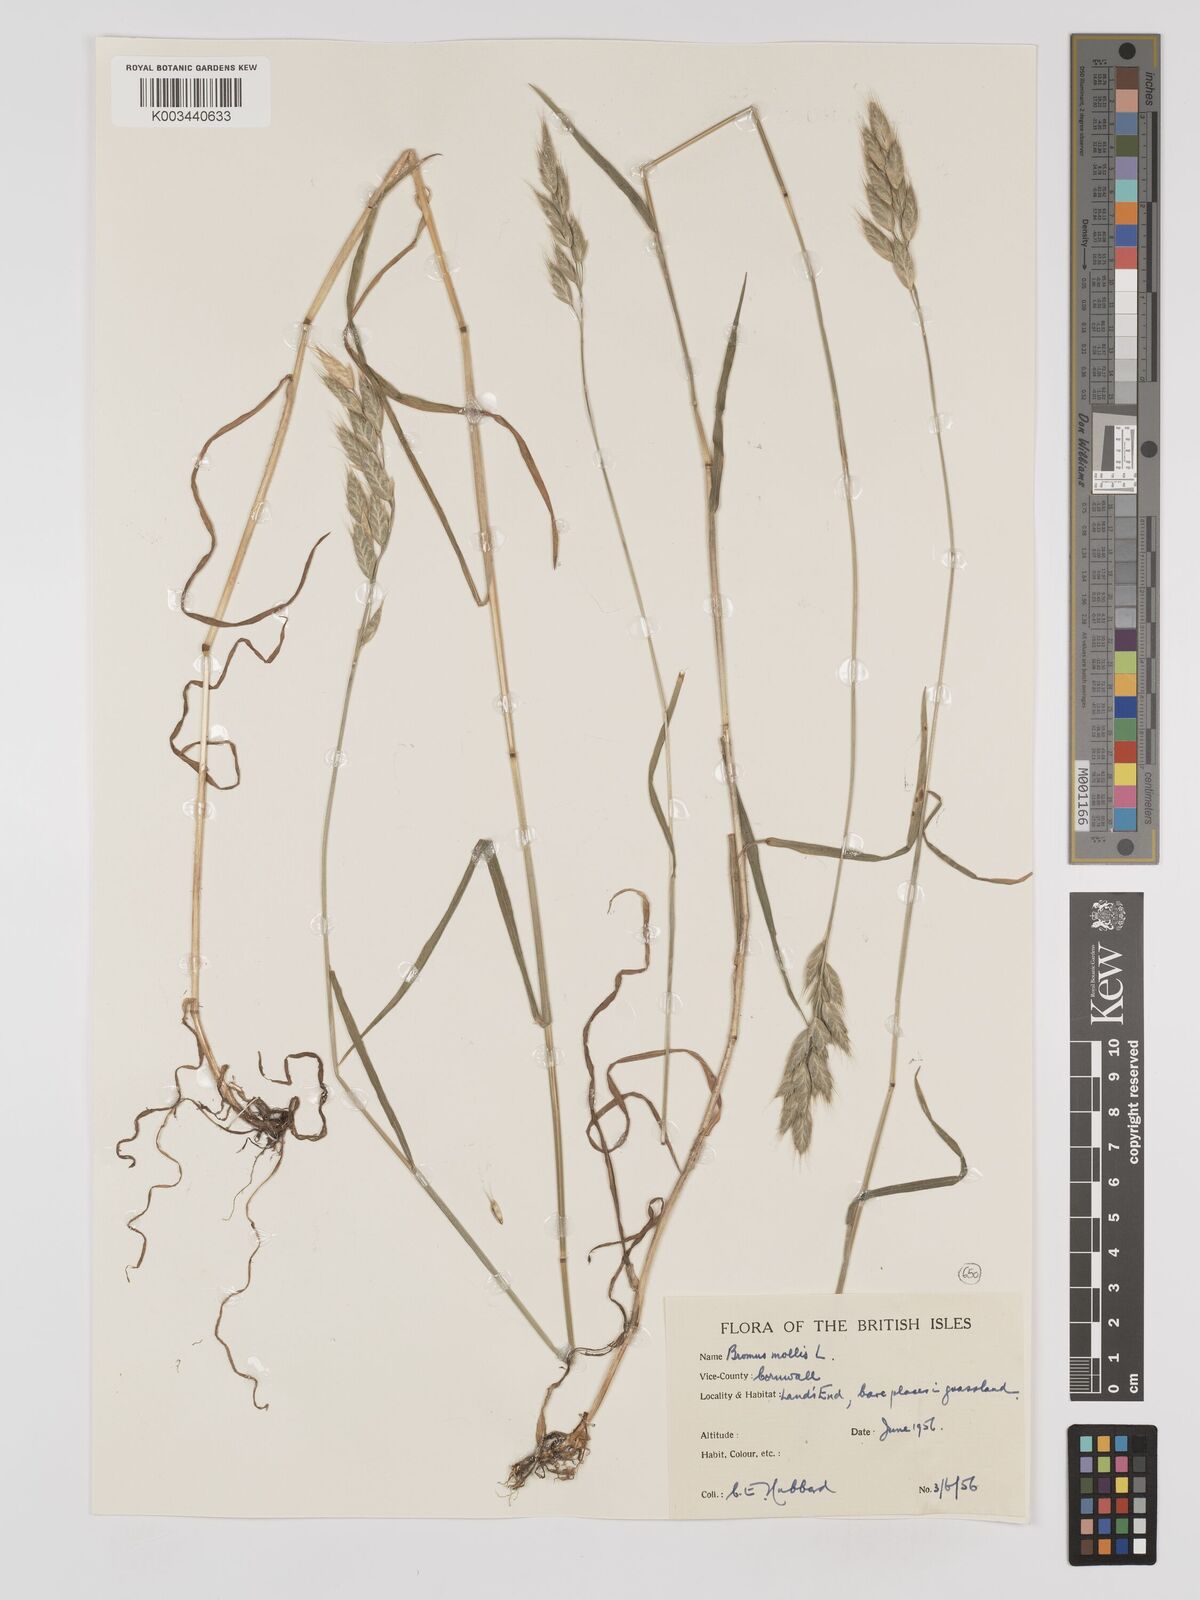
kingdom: Plantae
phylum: Tracheophyta
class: Liliopsida
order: Poales
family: Poaceae
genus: Bromus
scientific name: Bromus hordeaceus
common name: Soft brome
